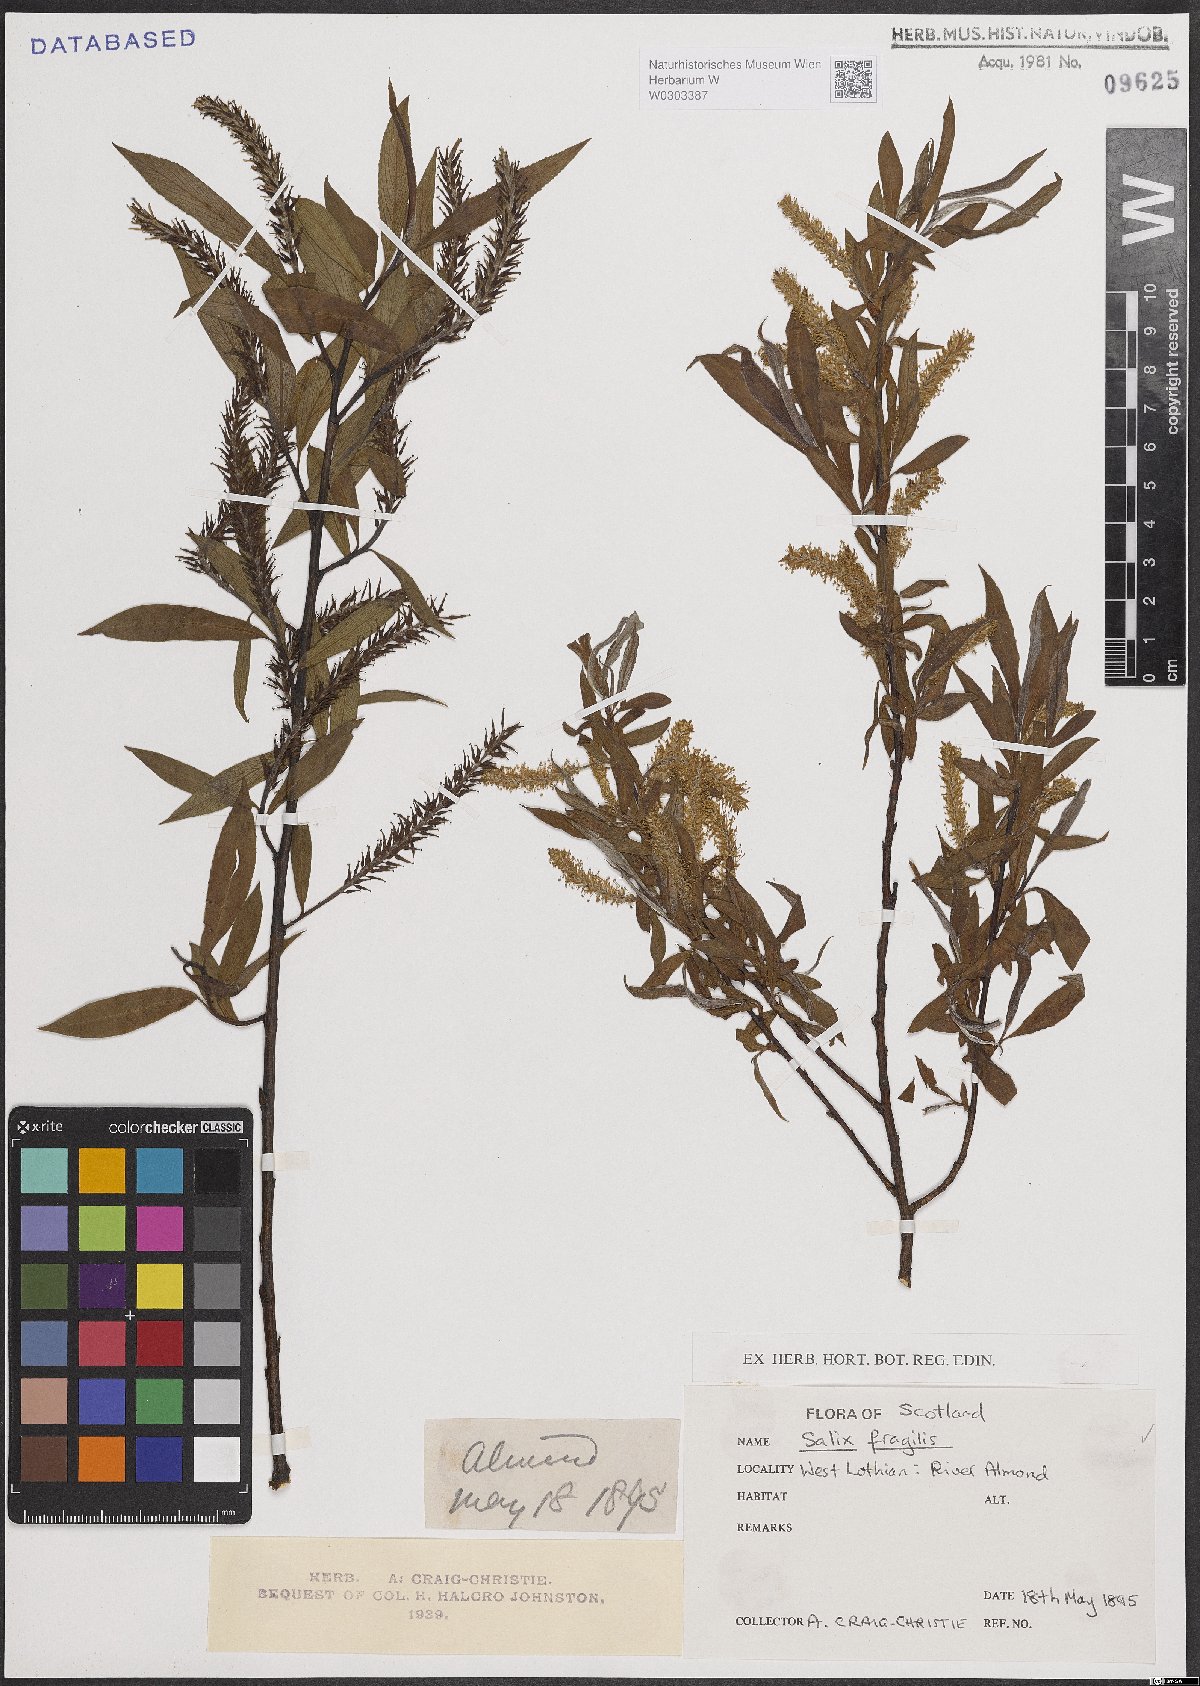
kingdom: Plantae
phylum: Tracheophyta
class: Magnoliopsida
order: Malpighiales
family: Salicaceae
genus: Salix
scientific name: Salix fragilis
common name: Crack willow
